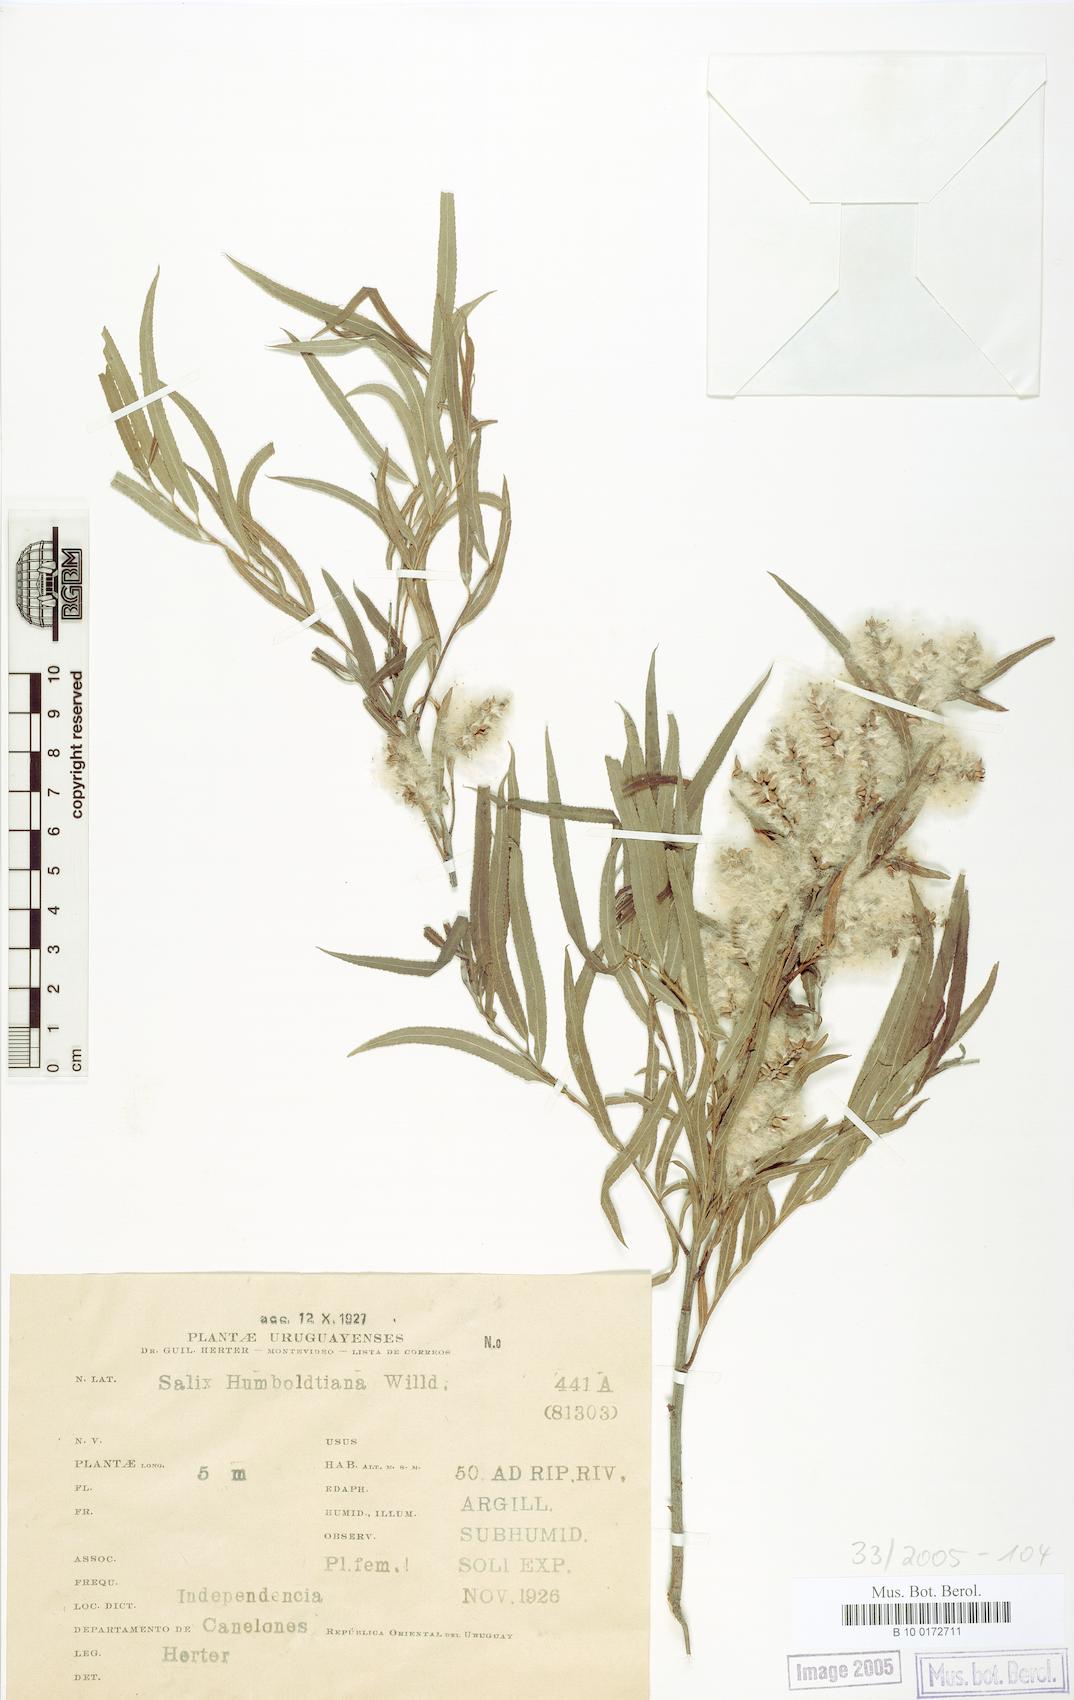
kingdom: Plantae
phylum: Tracheophyta
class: Magnoliopsida
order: Malpighiales
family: Salicaceae
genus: Salix
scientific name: Salix humboldtiana
